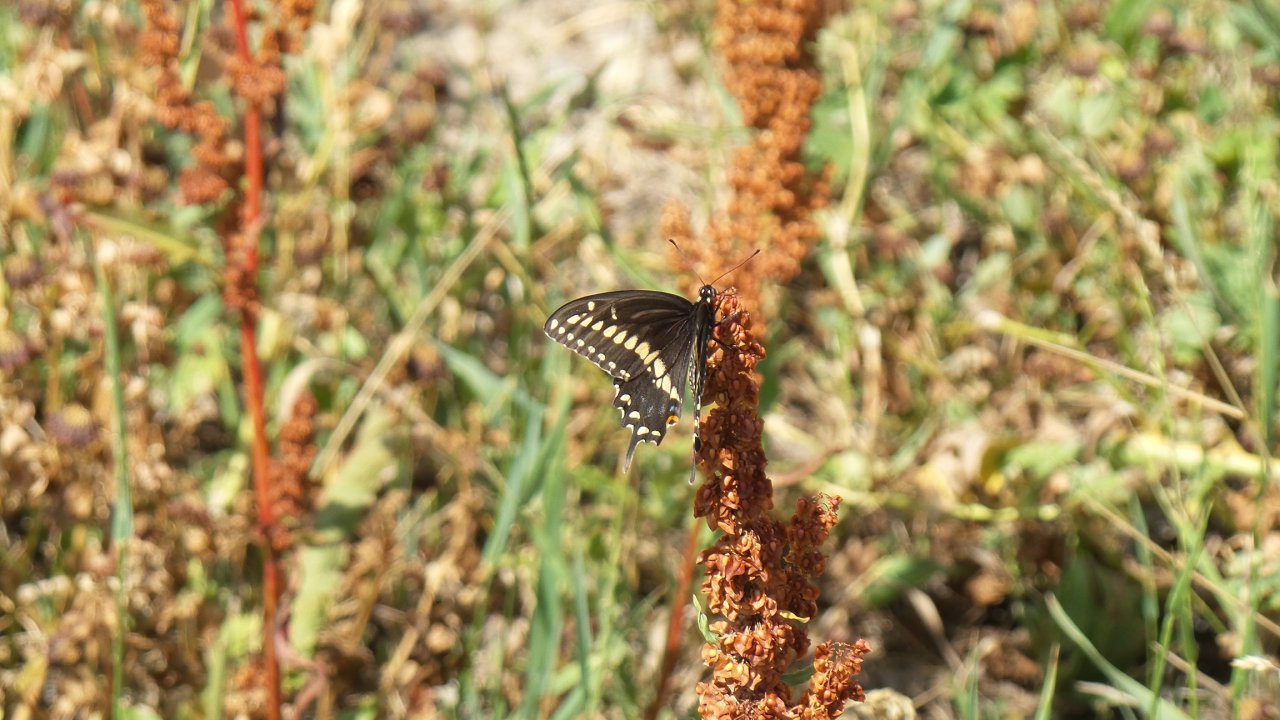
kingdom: Animalia
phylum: Arthropoda
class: Insecta
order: Lepidoptera
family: Papilionidae
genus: Papilio
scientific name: Papilio polyxenes
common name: Black Swallowtail
